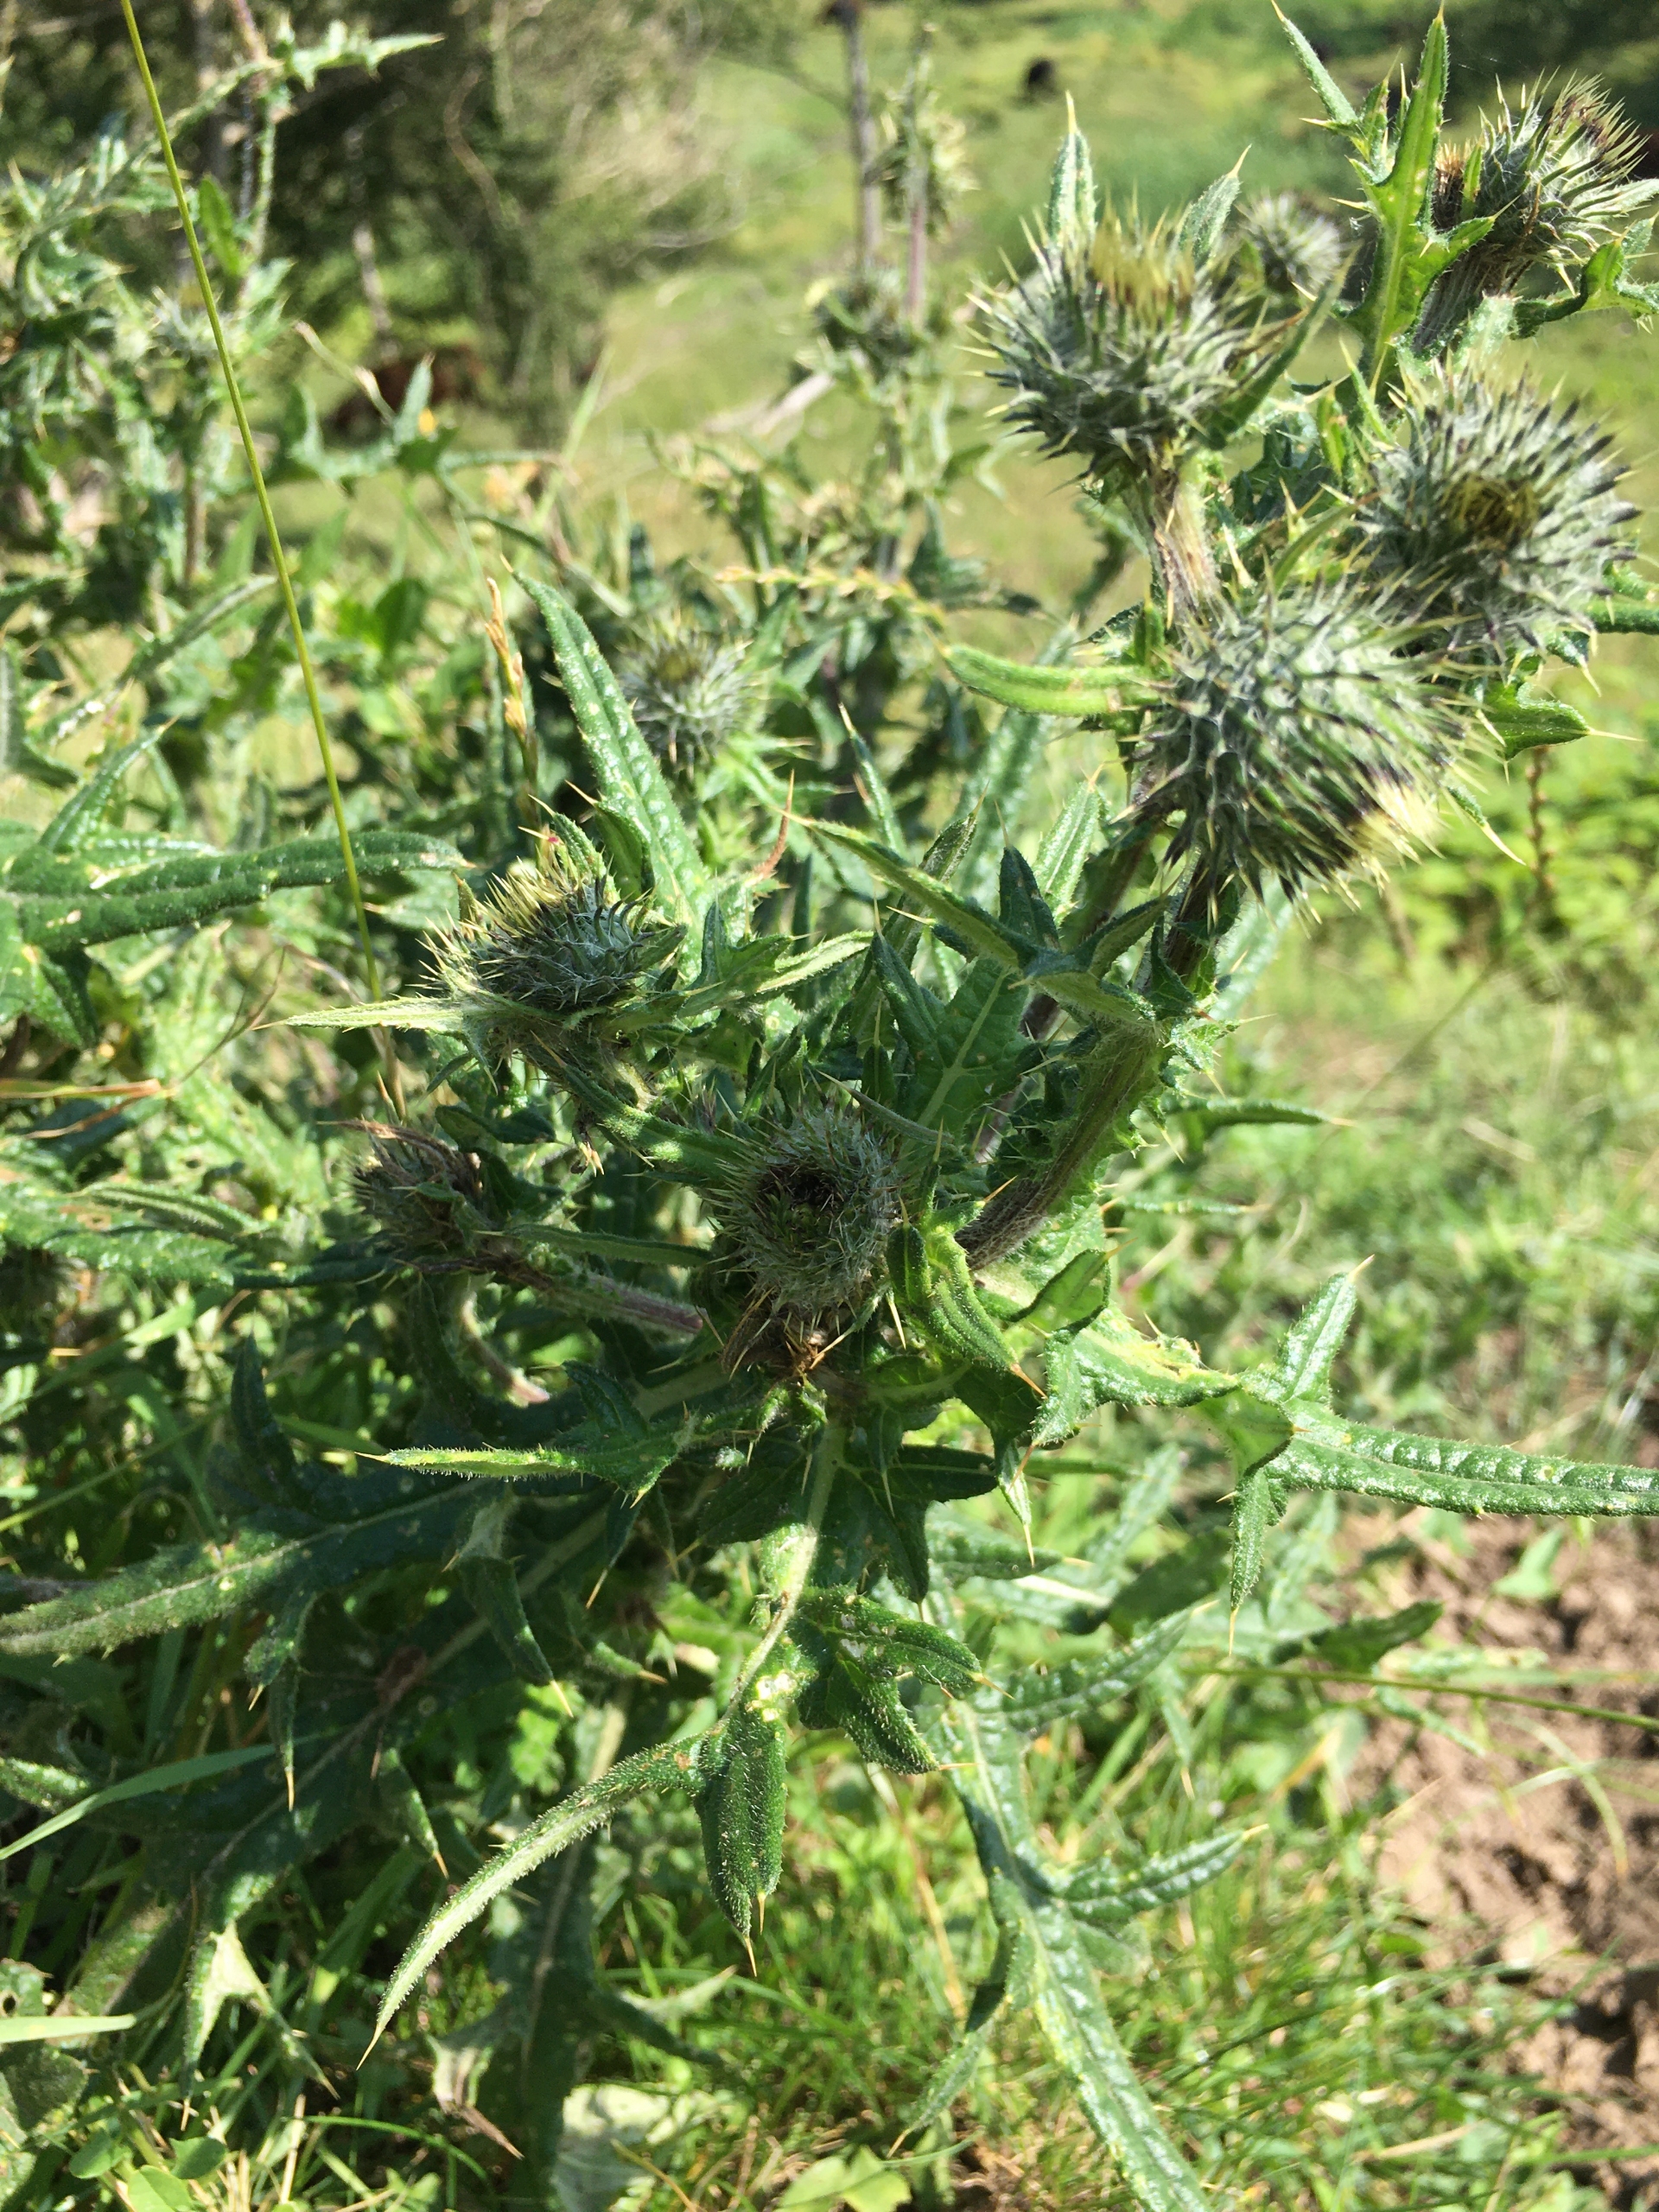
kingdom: Plantae
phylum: Tracheophyta
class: Magnoliopsida
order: Asterales
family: Asteraceae
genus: Cirsium
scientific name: Cirsium vulgare
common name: Horse-tidsel
